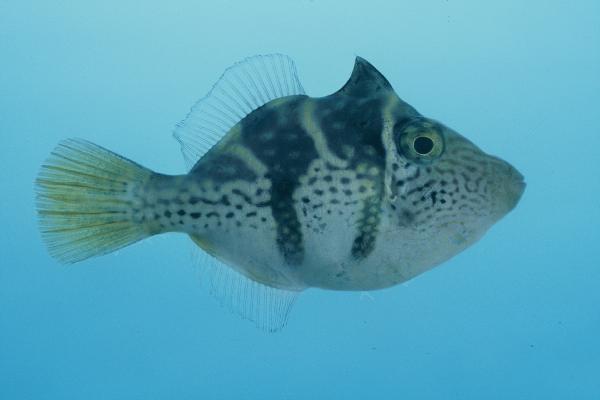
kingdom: Animalia
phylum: Chordata
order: Tetraodontiformes
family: Monacanthidae
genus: Paraluteres
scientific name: Paraluteres prionurus
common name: Black-saddled leatherjacket
